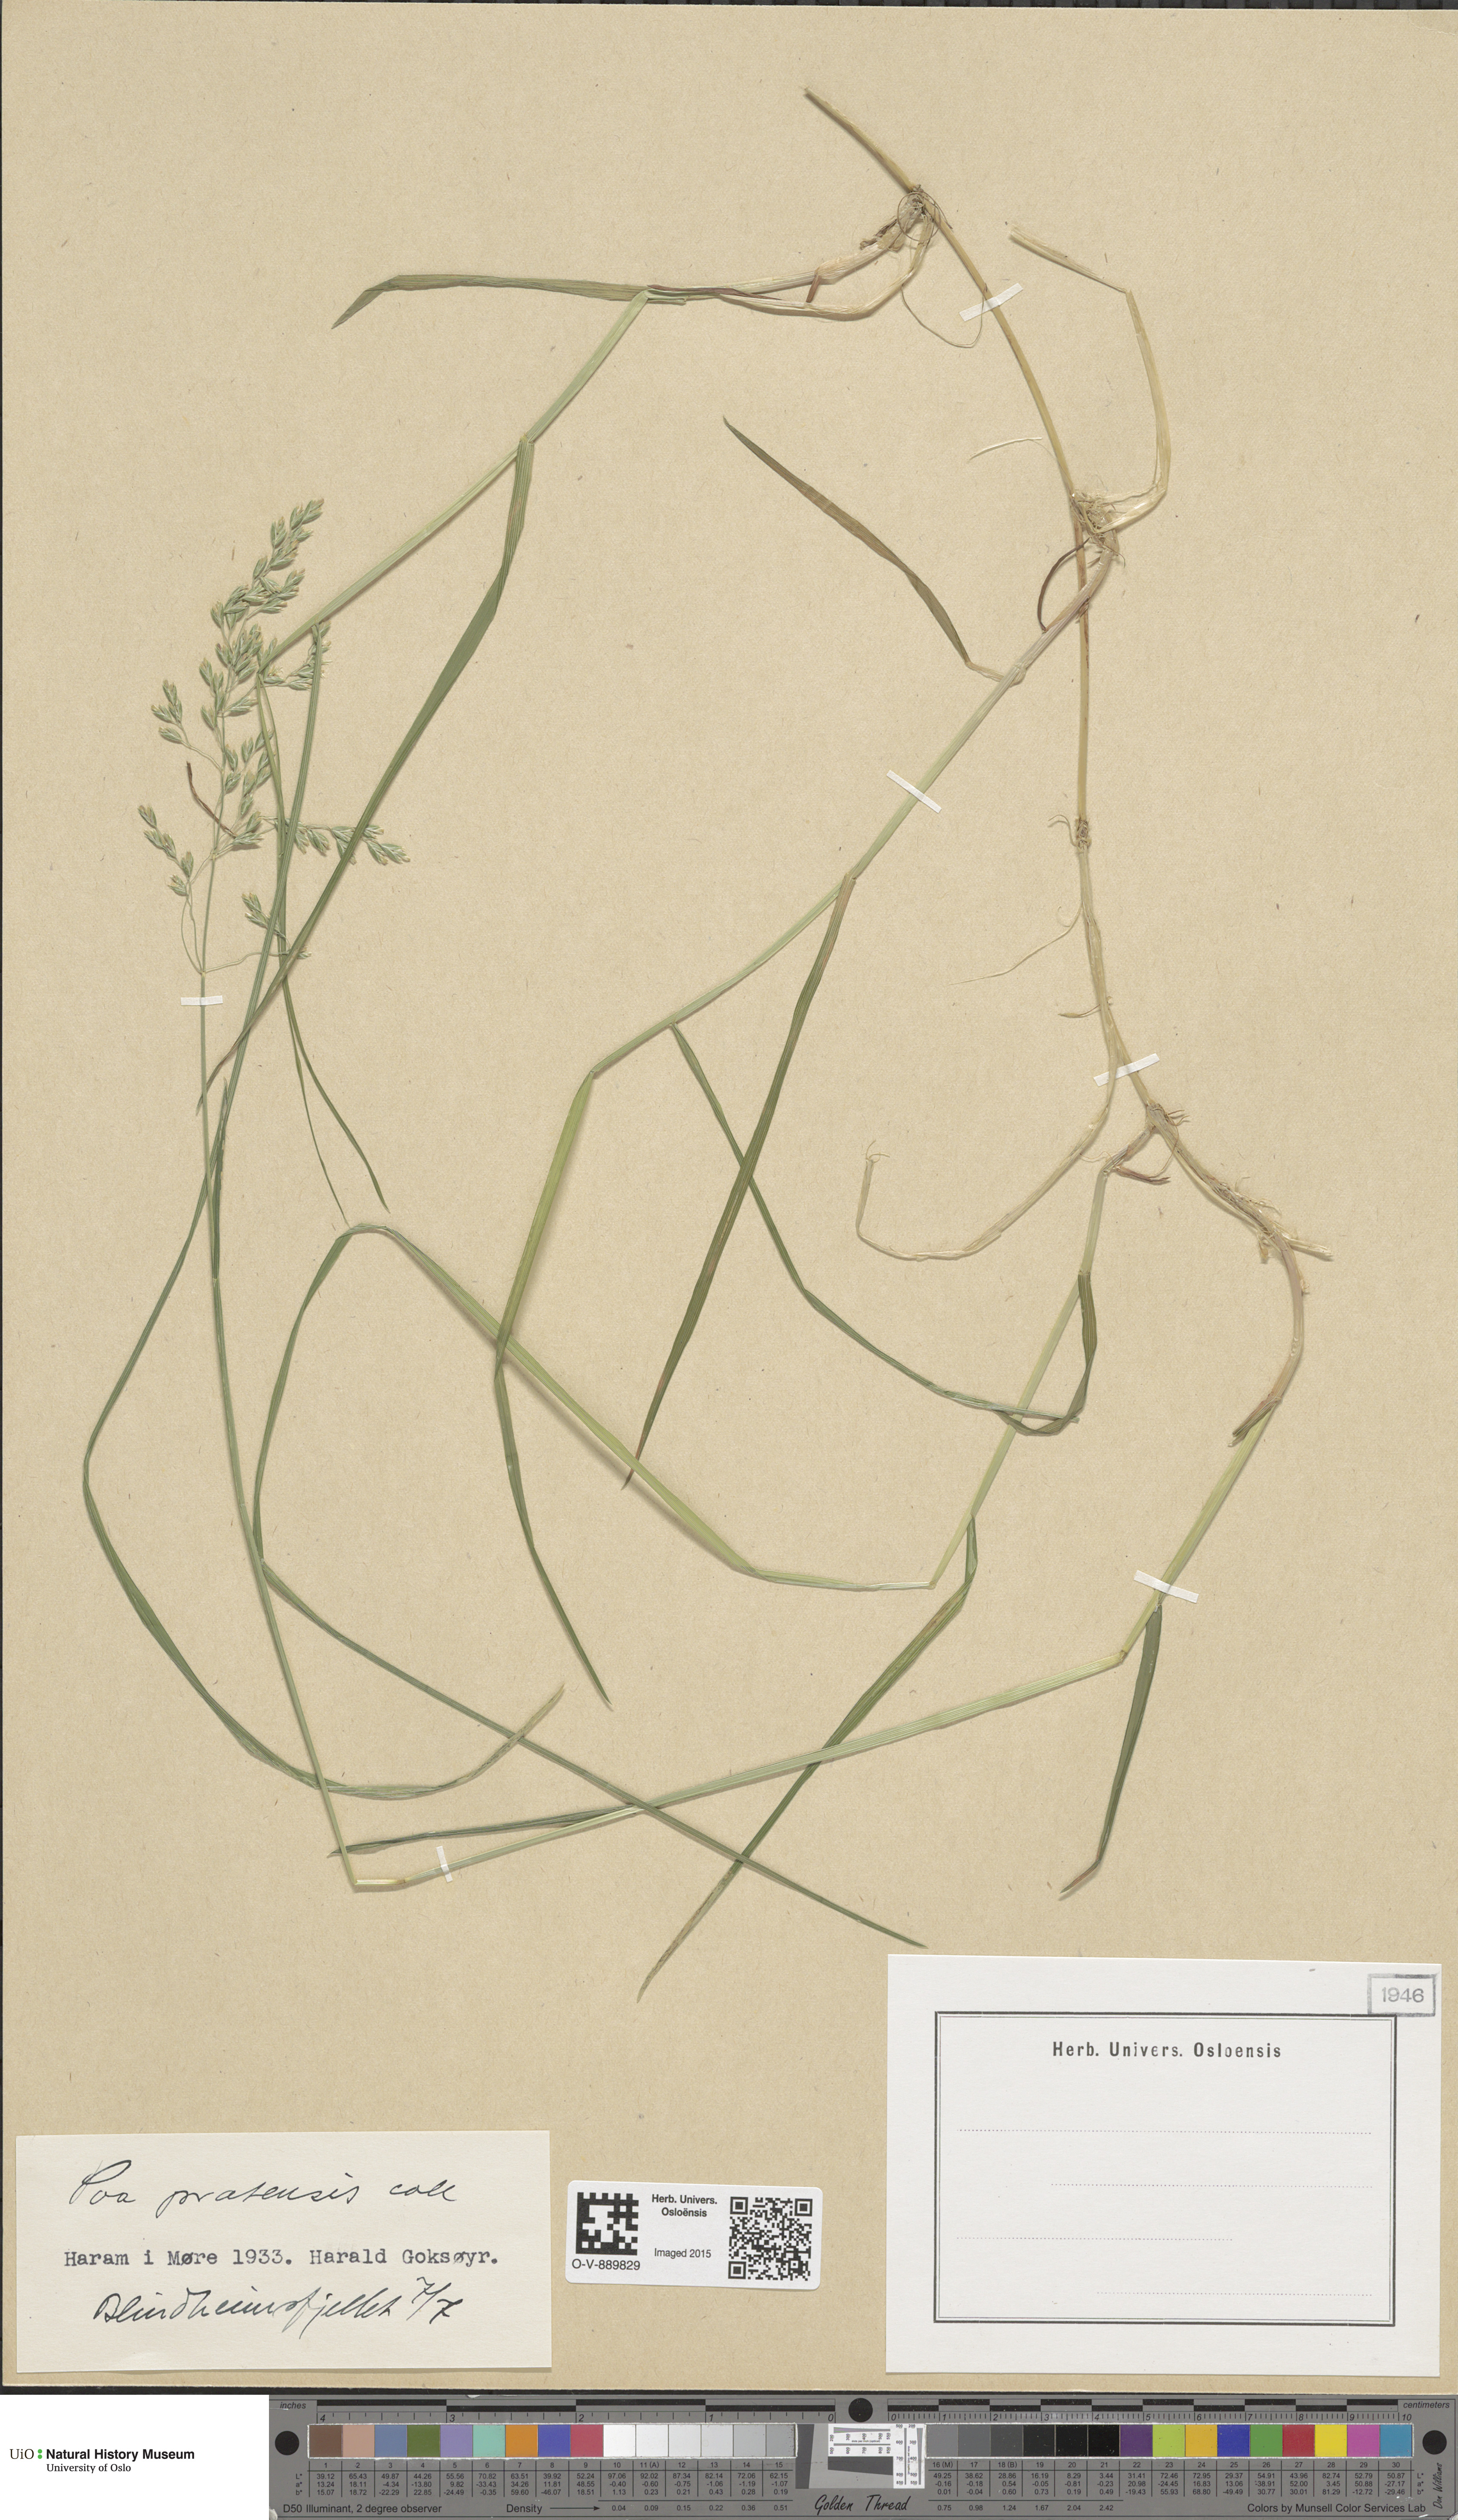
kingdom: Plantae
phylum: Tracheophyta
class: Liliopsida
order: Poales
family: Poaceae
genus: Poa
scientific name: Poa pratensis
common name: Kentucky bluegrass
